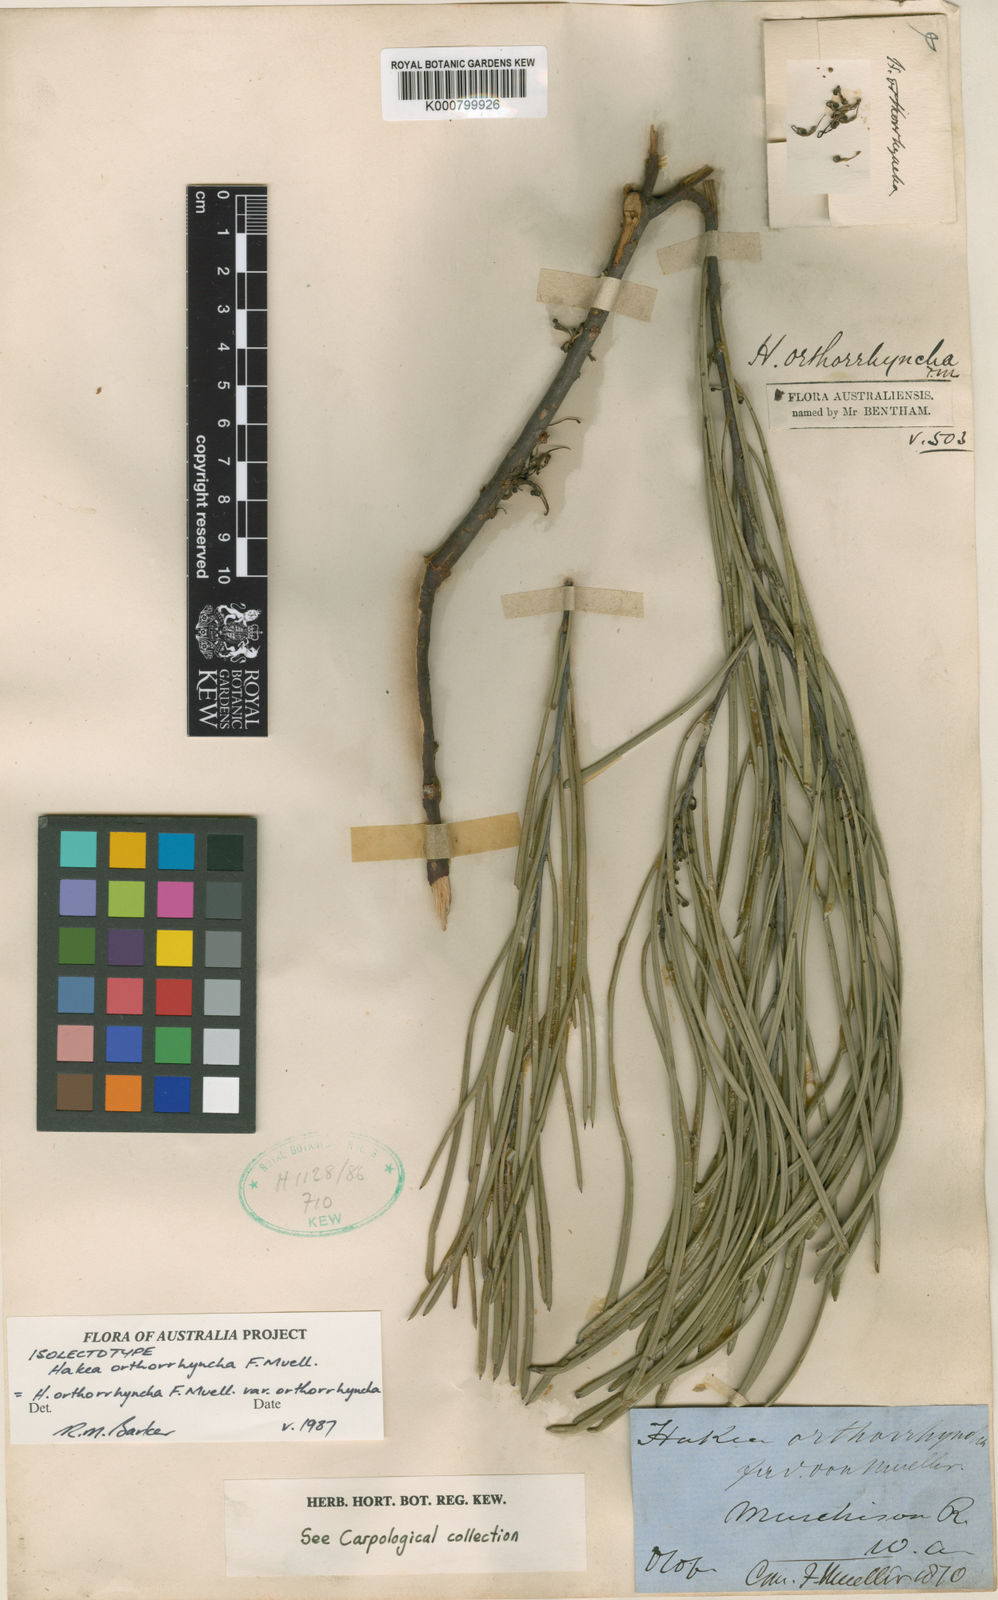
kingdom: Plantae
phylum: Tracheophyta
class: Magnoliopsida
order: Proteales
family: Proteaceae
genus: Hakea
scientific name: Hakea orthorrhyncha
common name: Bird beak hakea
